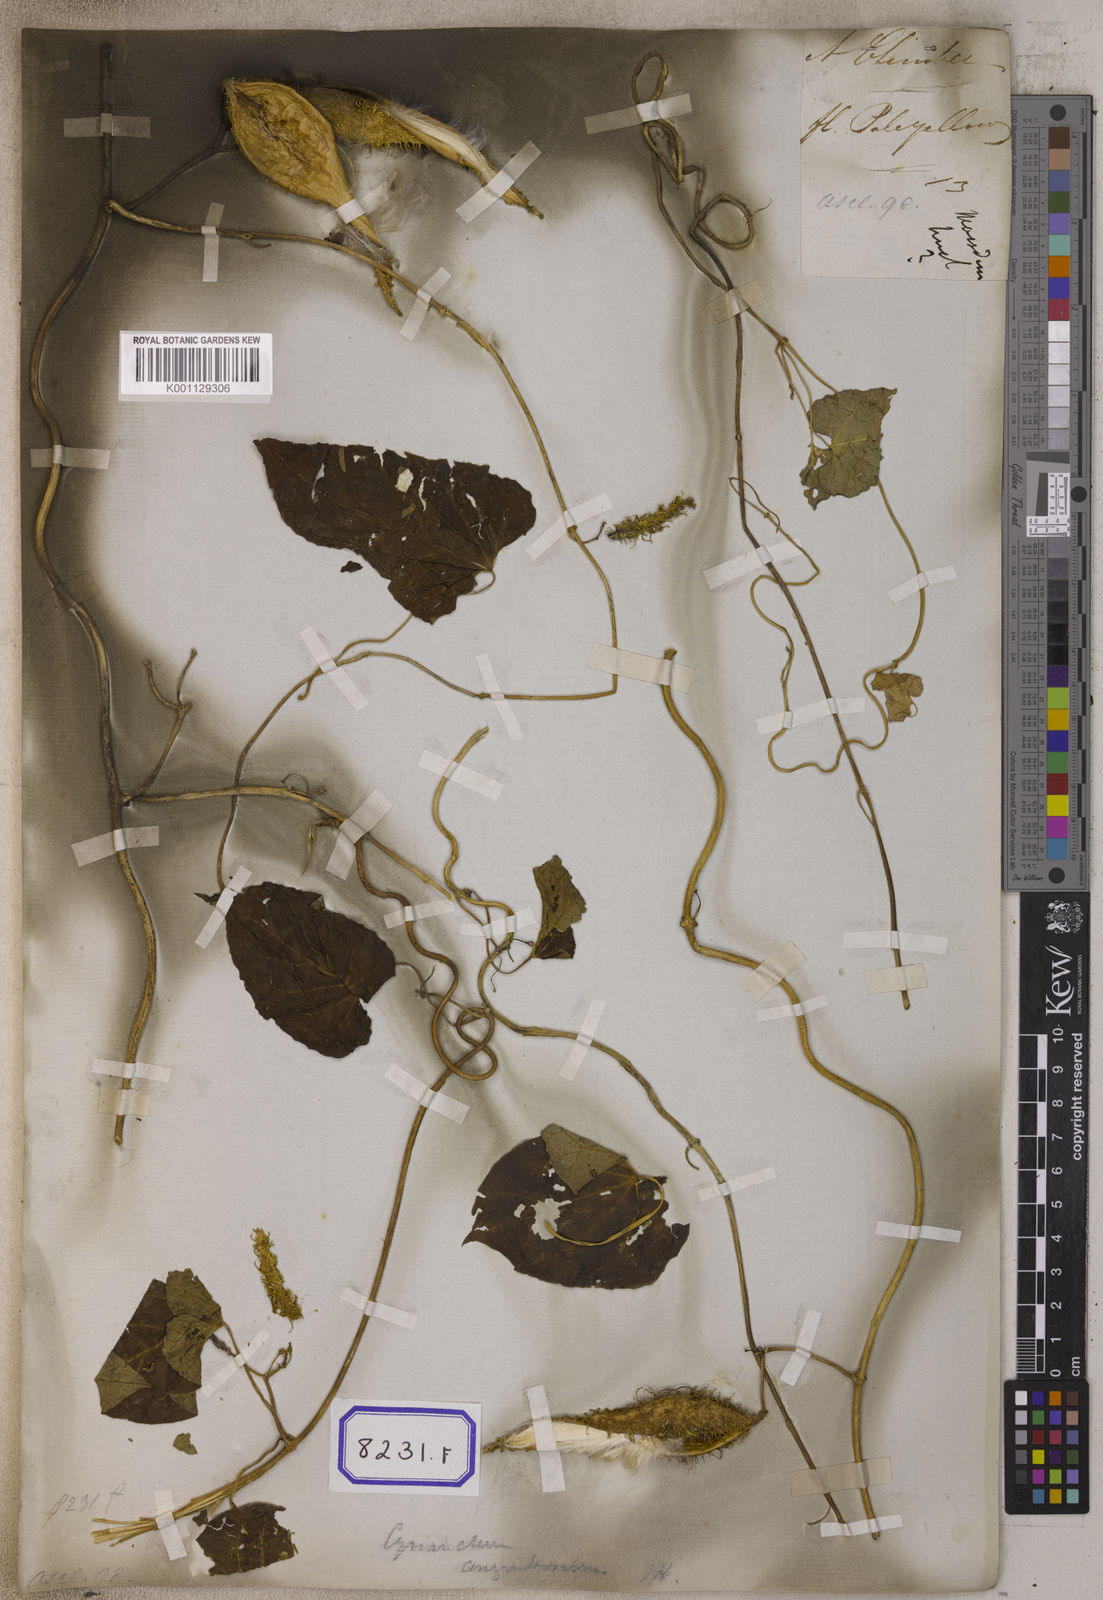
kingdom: Plantae
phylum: Tracheophyta
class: Magnoliopsida
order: Gentianales
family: Apocynaceae
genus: Pergularia
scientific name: Pergularia
